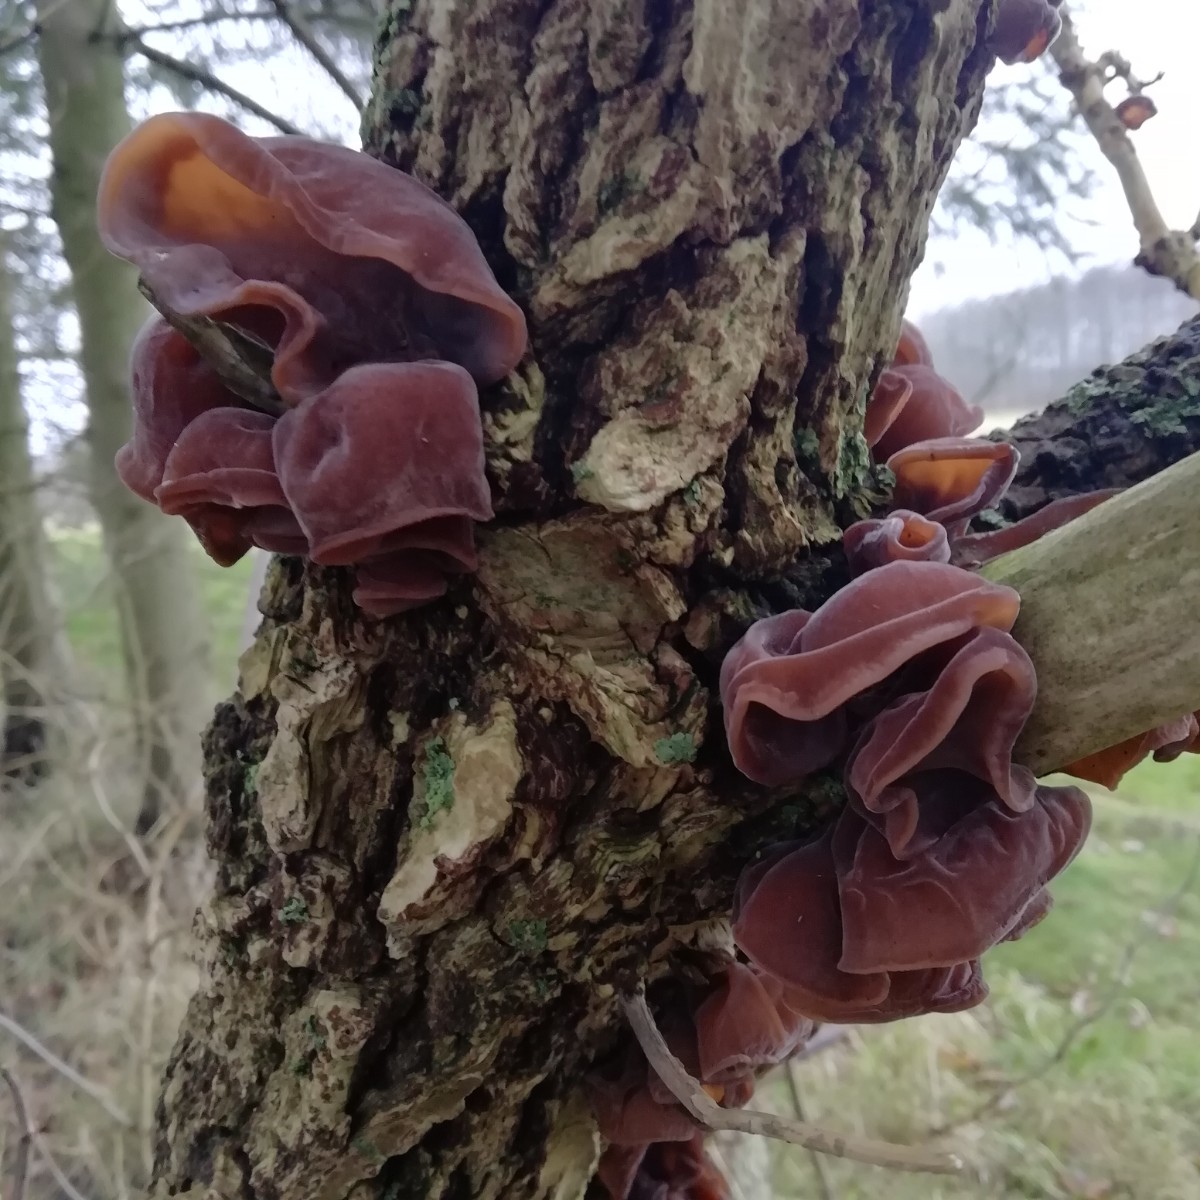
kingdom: Fungi
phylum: Basidiomycota
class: Agaricomycetes
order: Auriculariales
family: Auriculariaceae
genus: Auricularia
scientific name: Auricularia auricula-judae
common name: almindelig judasøre
